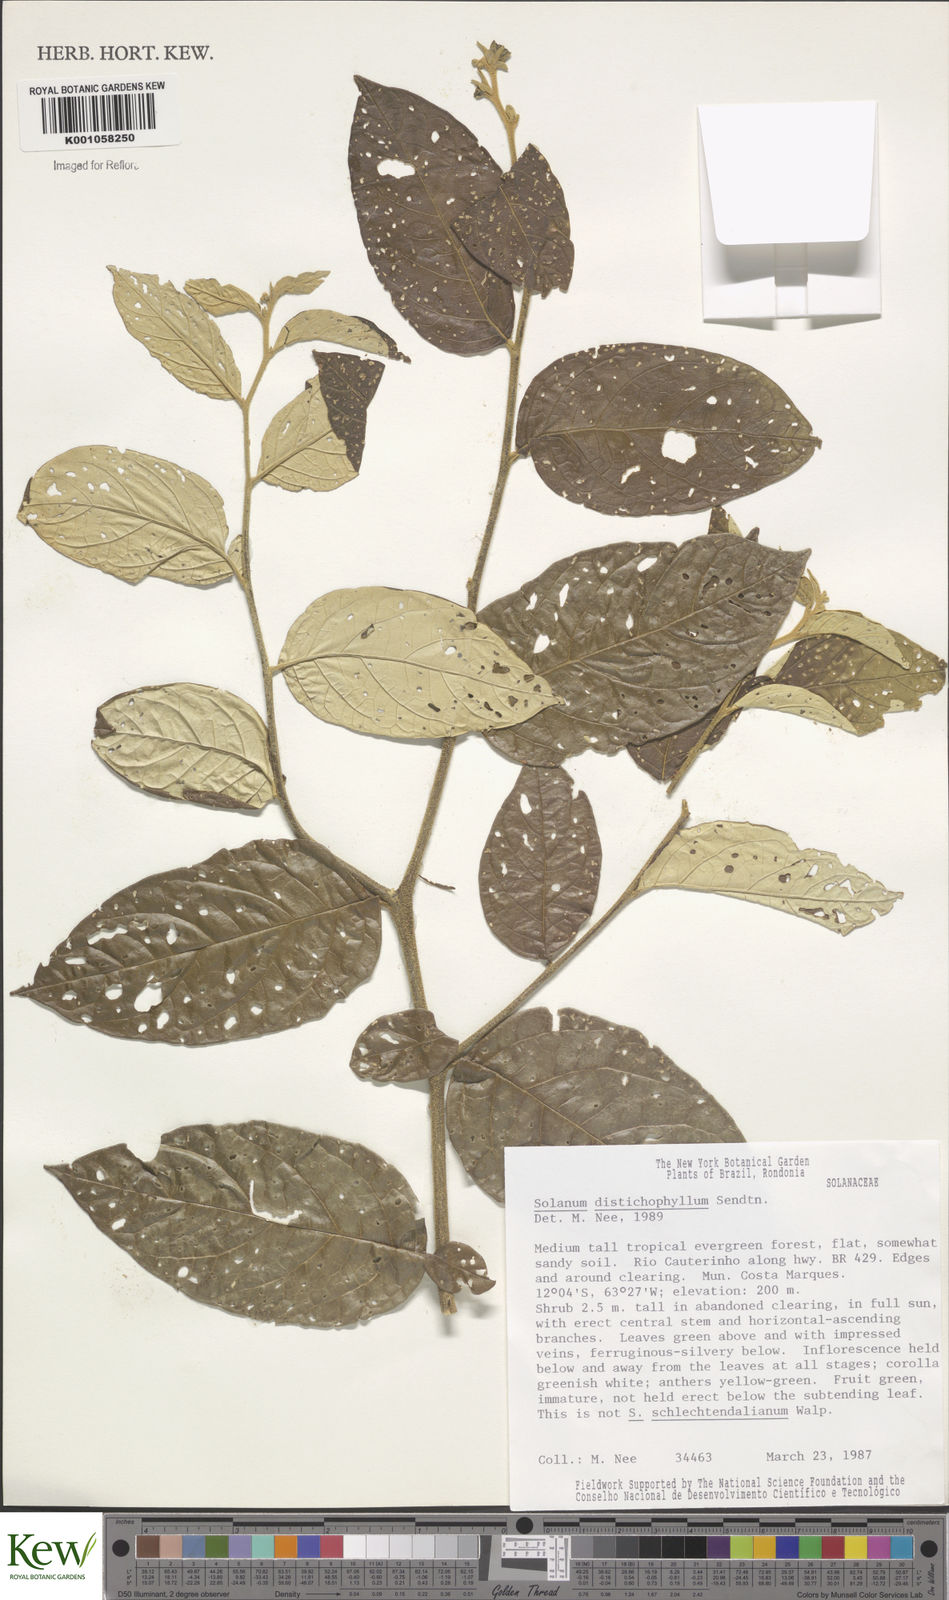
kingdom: Plantae
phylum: Tracheophyta
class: Magnoliopsida
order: Solanales
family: Solanaceae
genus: Solanum
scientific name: Solanum distichophyllum
